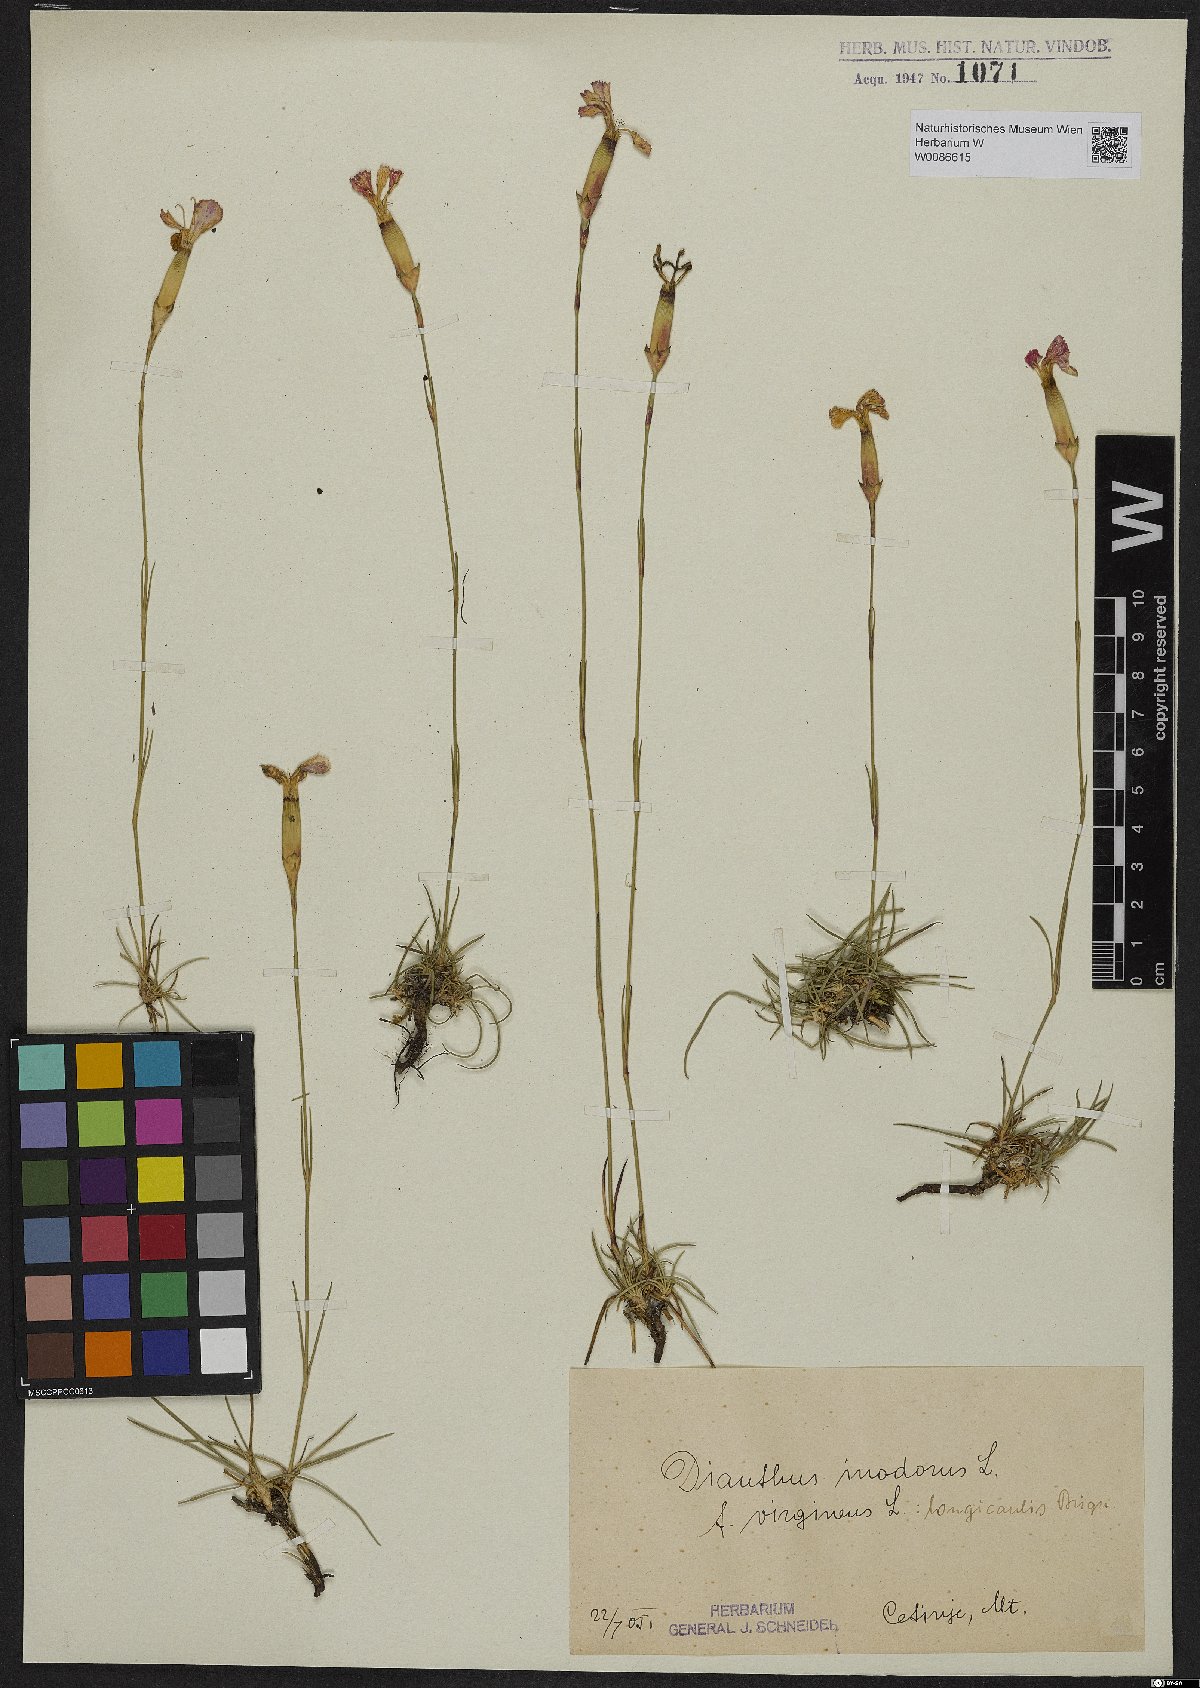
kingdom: Plantae
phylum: Tracheophyta
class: Magnoliopsida
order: Caryophyllales
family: Caryophyllaceae
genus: Dianthus
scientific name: Dianthus sylvestris
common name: Wood pink
